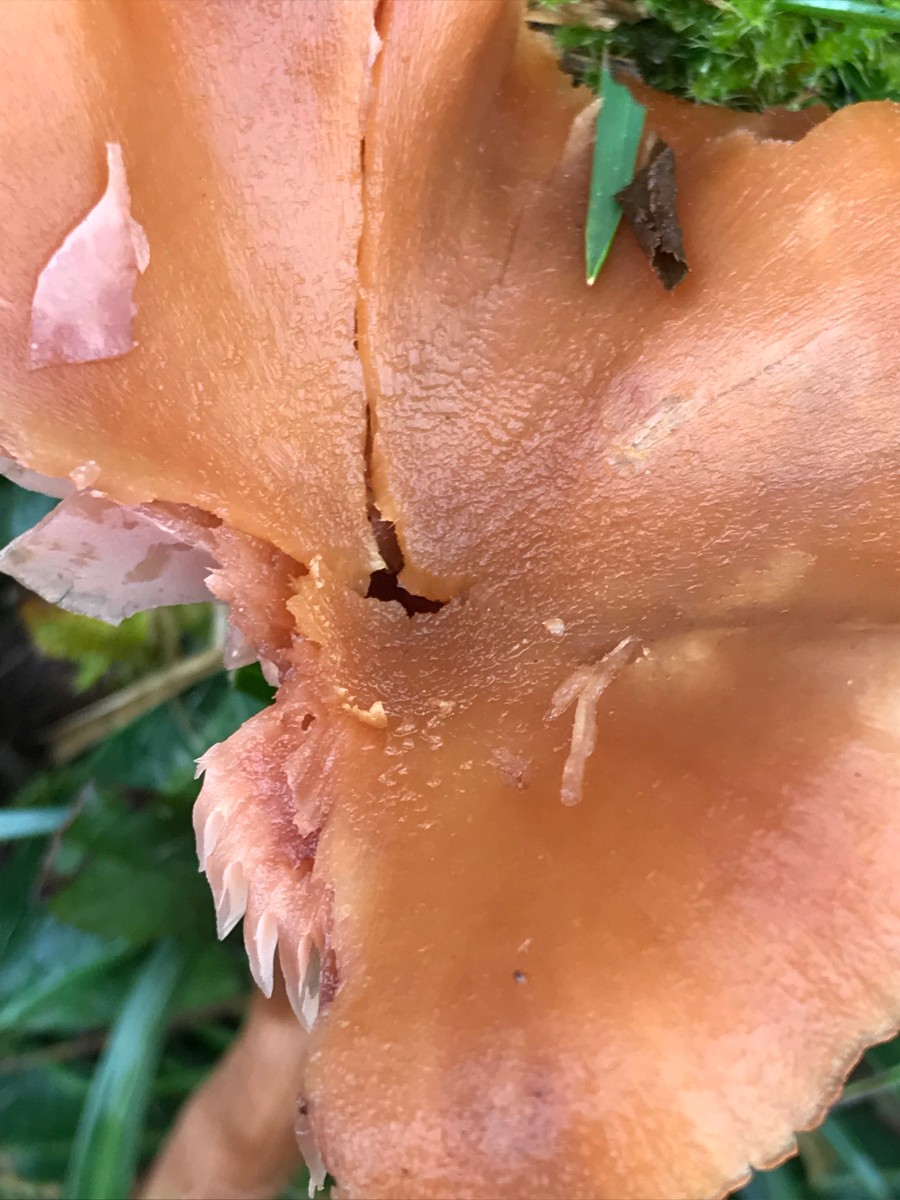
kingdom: Fungi
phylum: Basidiomycota
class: Agaricomycetes
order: Agaricales
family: Hydnangiaceae
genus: Laccaria
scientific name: Laccaria proxima
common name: stor ametysthat
